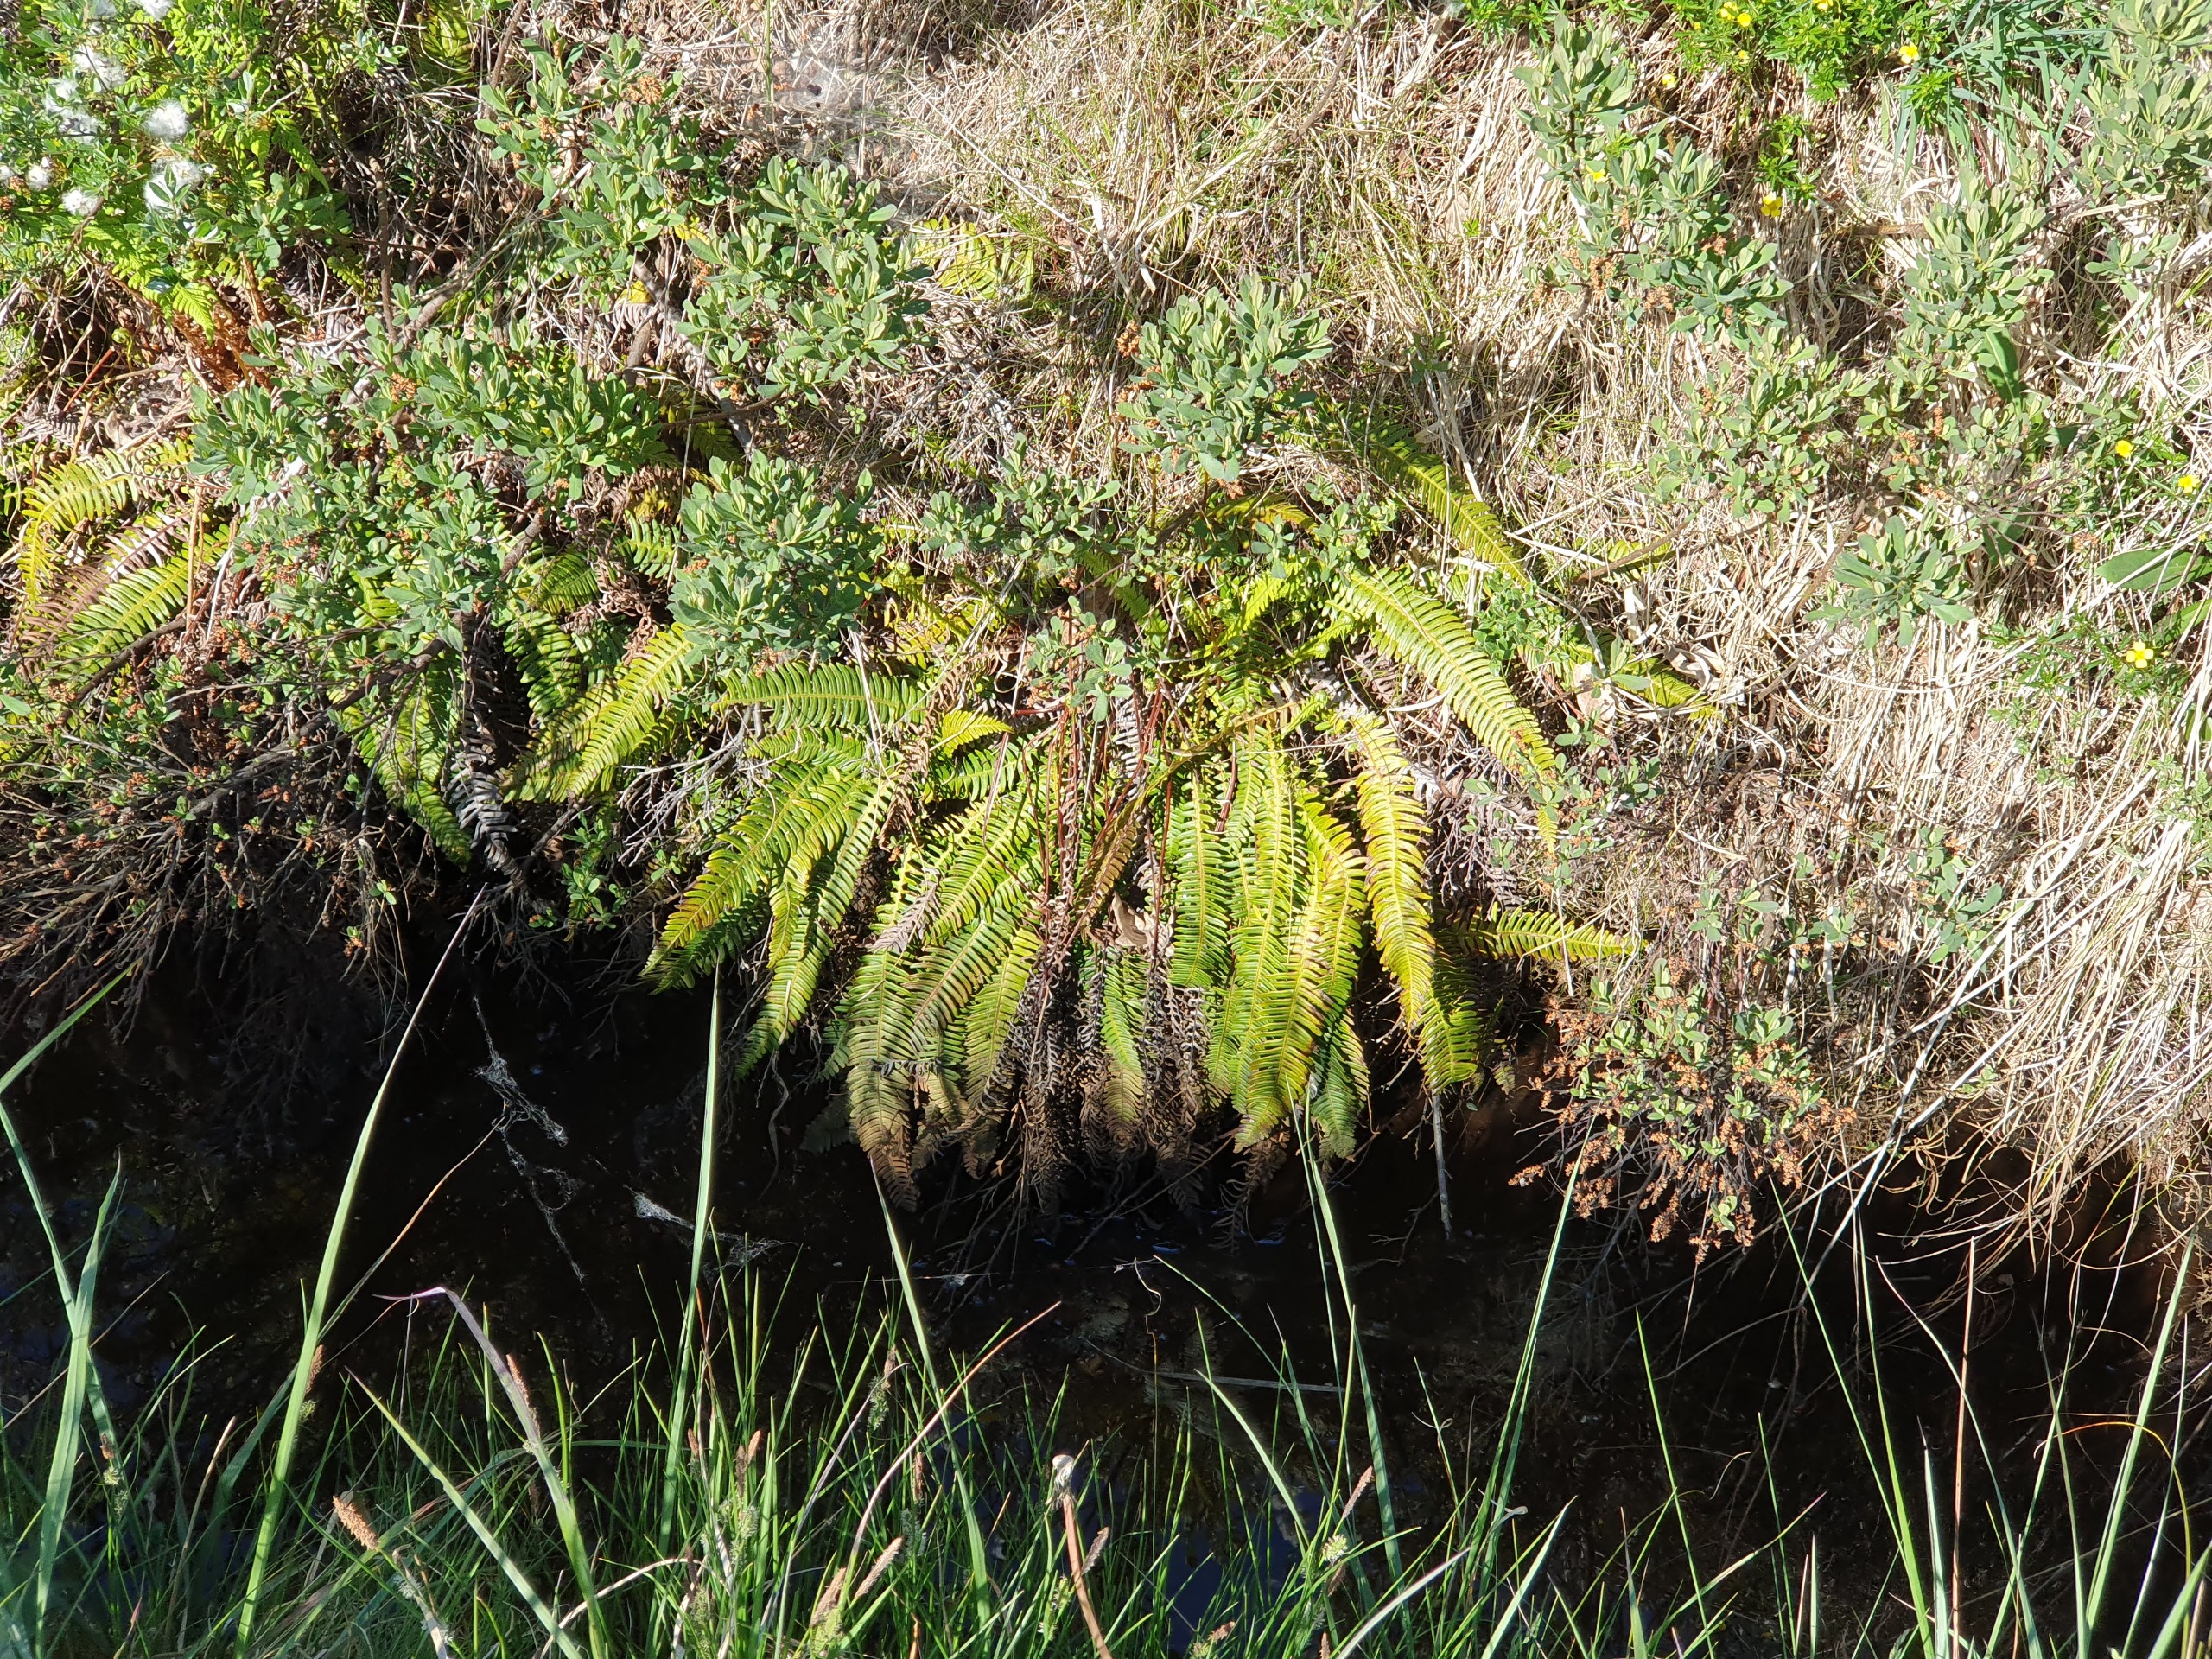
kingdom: Plantae
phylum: Tracheophyta
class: Polypodiopsida
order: Polypodiales
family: Blechnaceae
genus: Struthiopteris
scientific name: Struthiopteris spicant
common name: Kambregne
